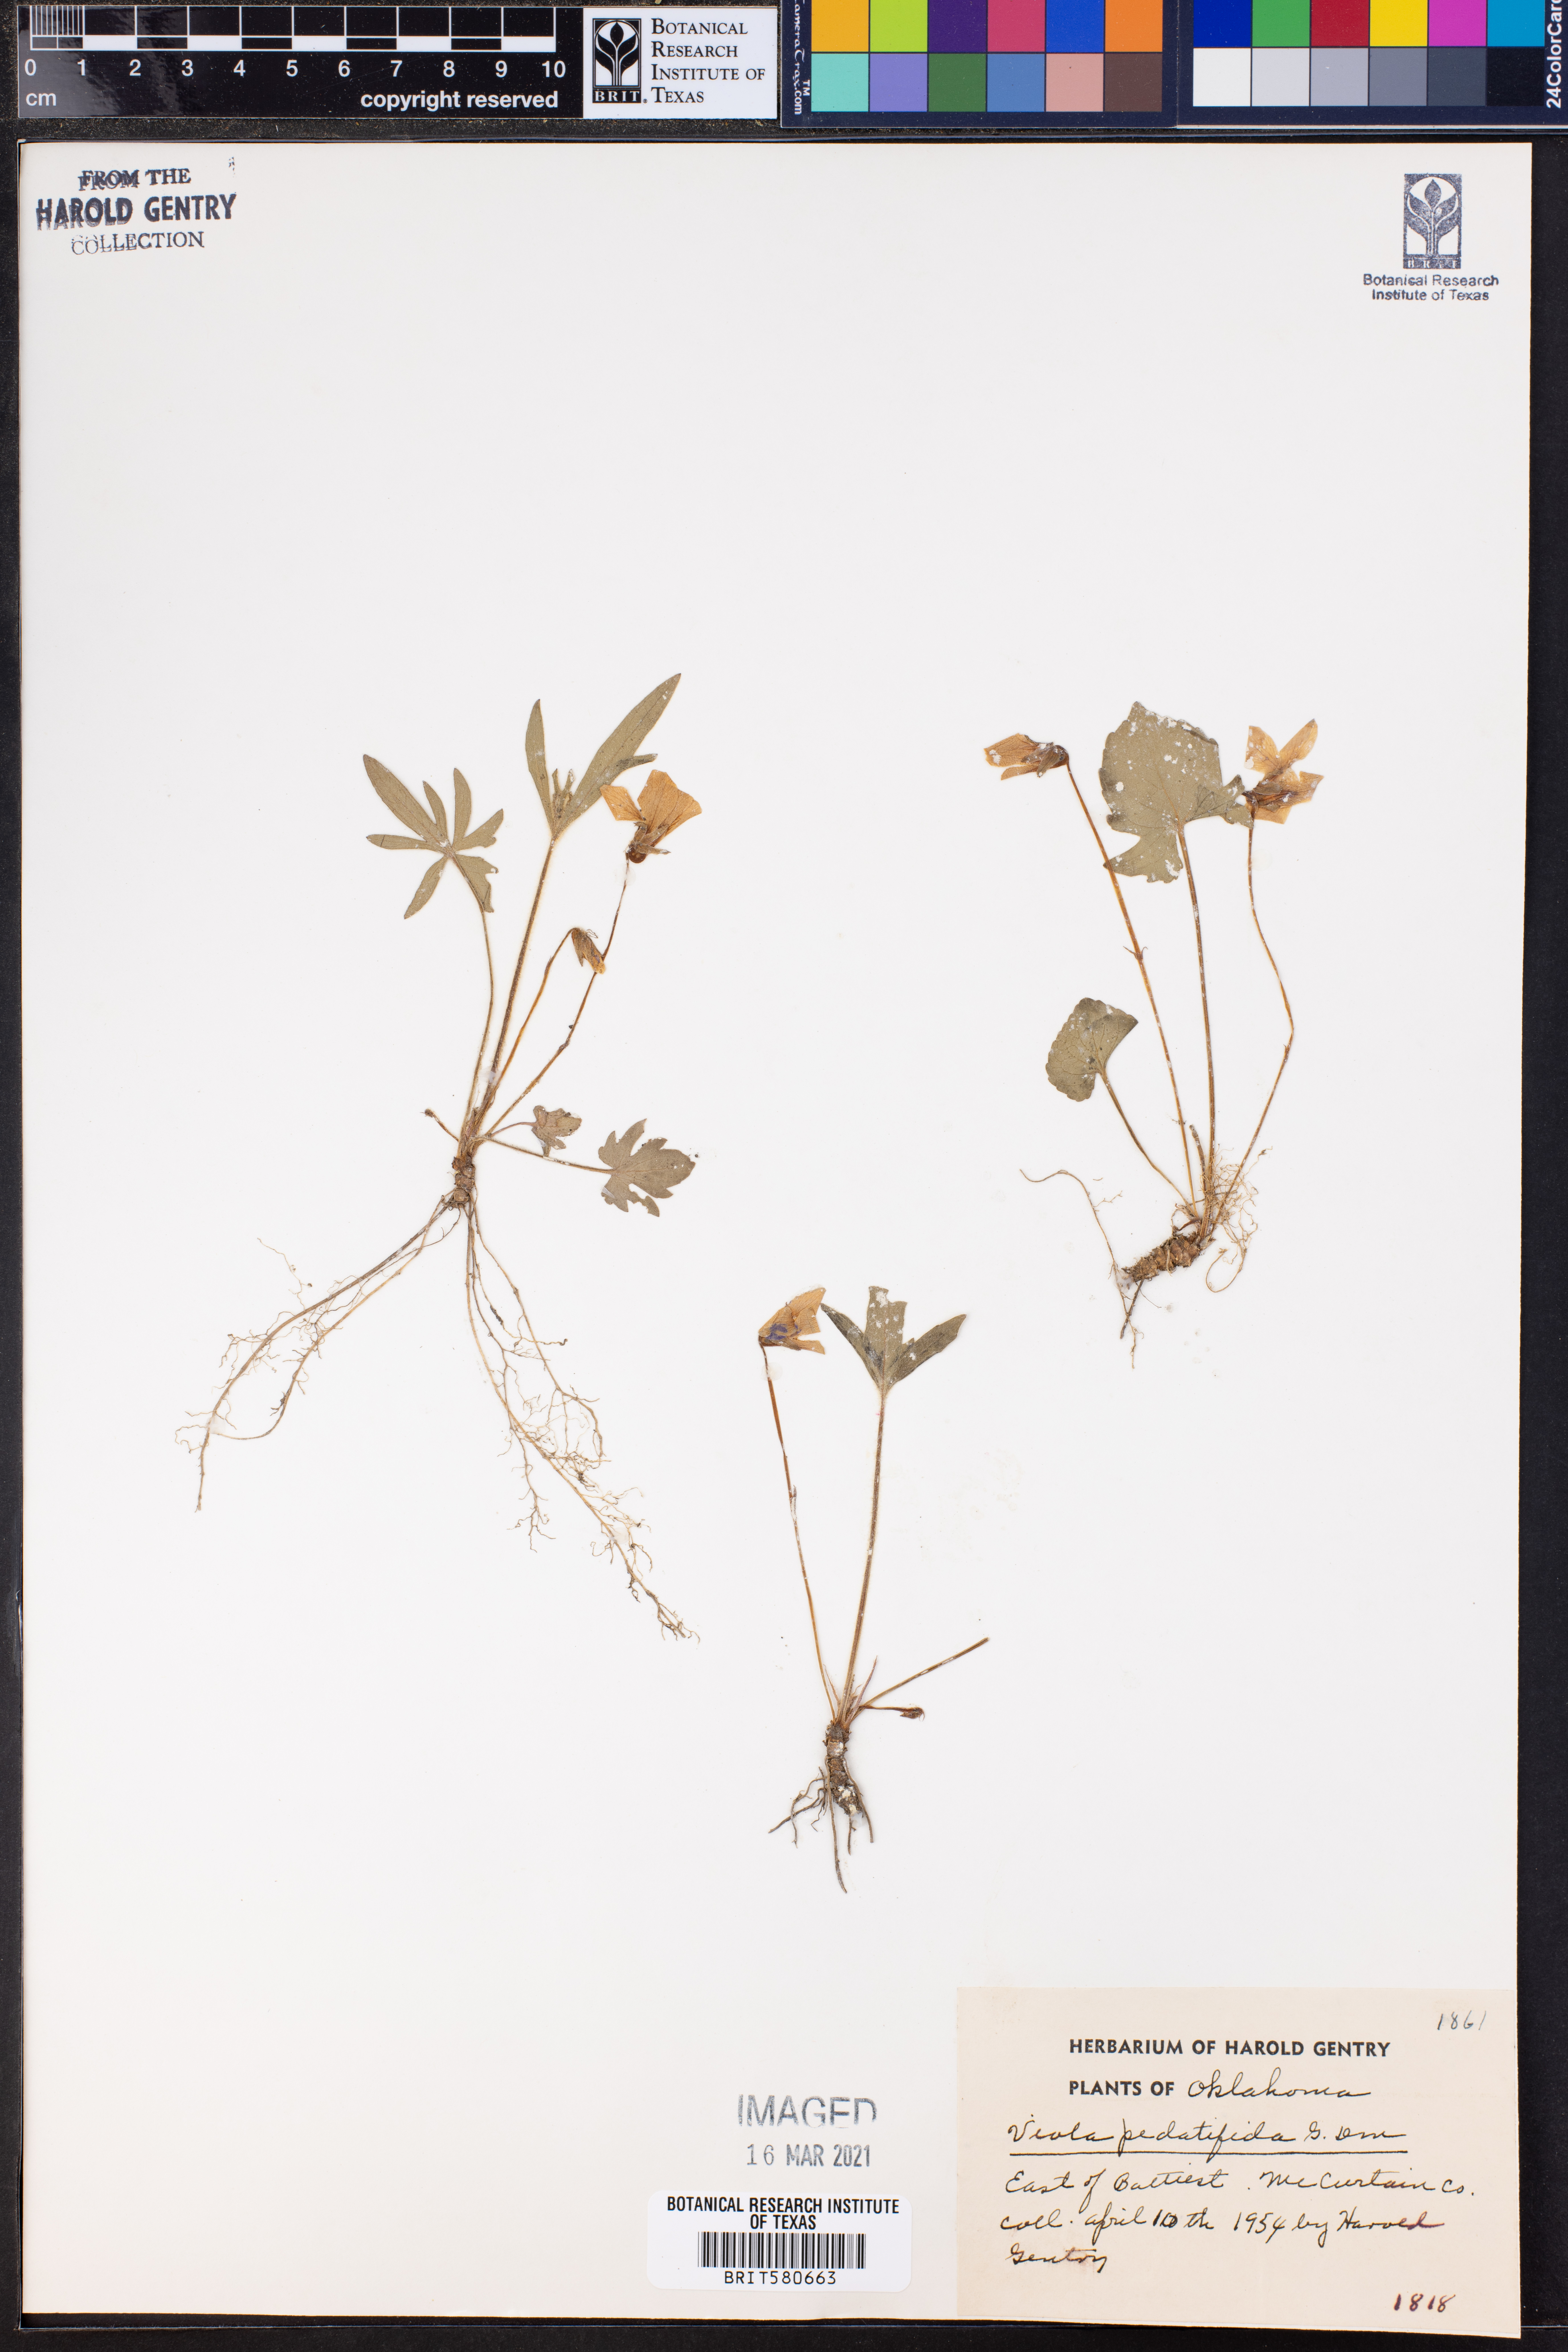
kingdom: Plantae
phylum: Tracheophyta
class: Magnoliopsida
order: Malpighiales
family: Violaceae
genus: Viola
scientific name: Viola pedatifida
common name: Prairie violet
